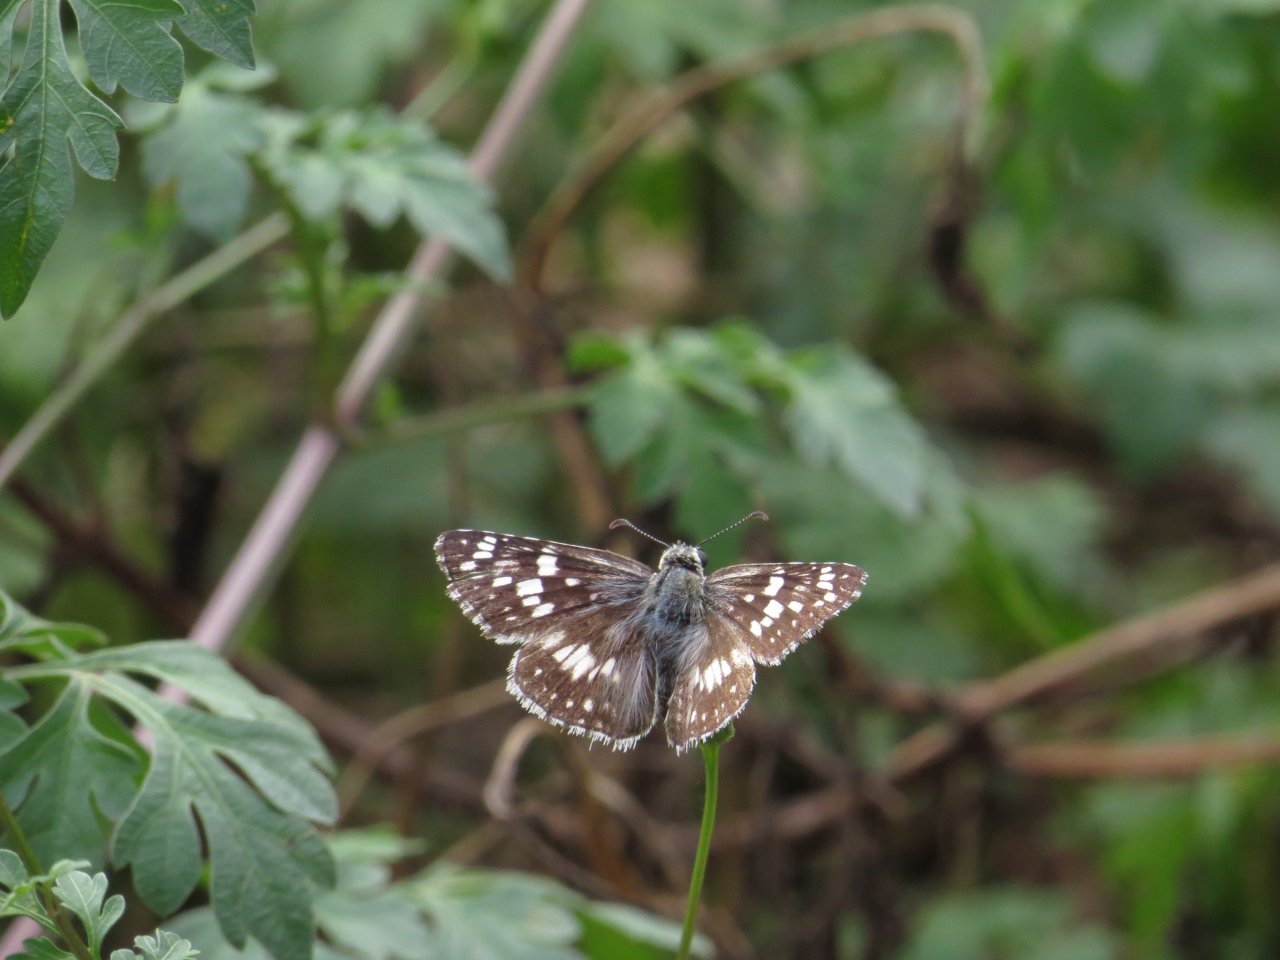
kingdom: Animalia
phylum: Arthropoda
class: Insecta
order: Lepidoptera
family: Hesperiidae
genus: Pyrgus
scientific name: Pyrgus communis
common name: Common Checkered-Skipper
